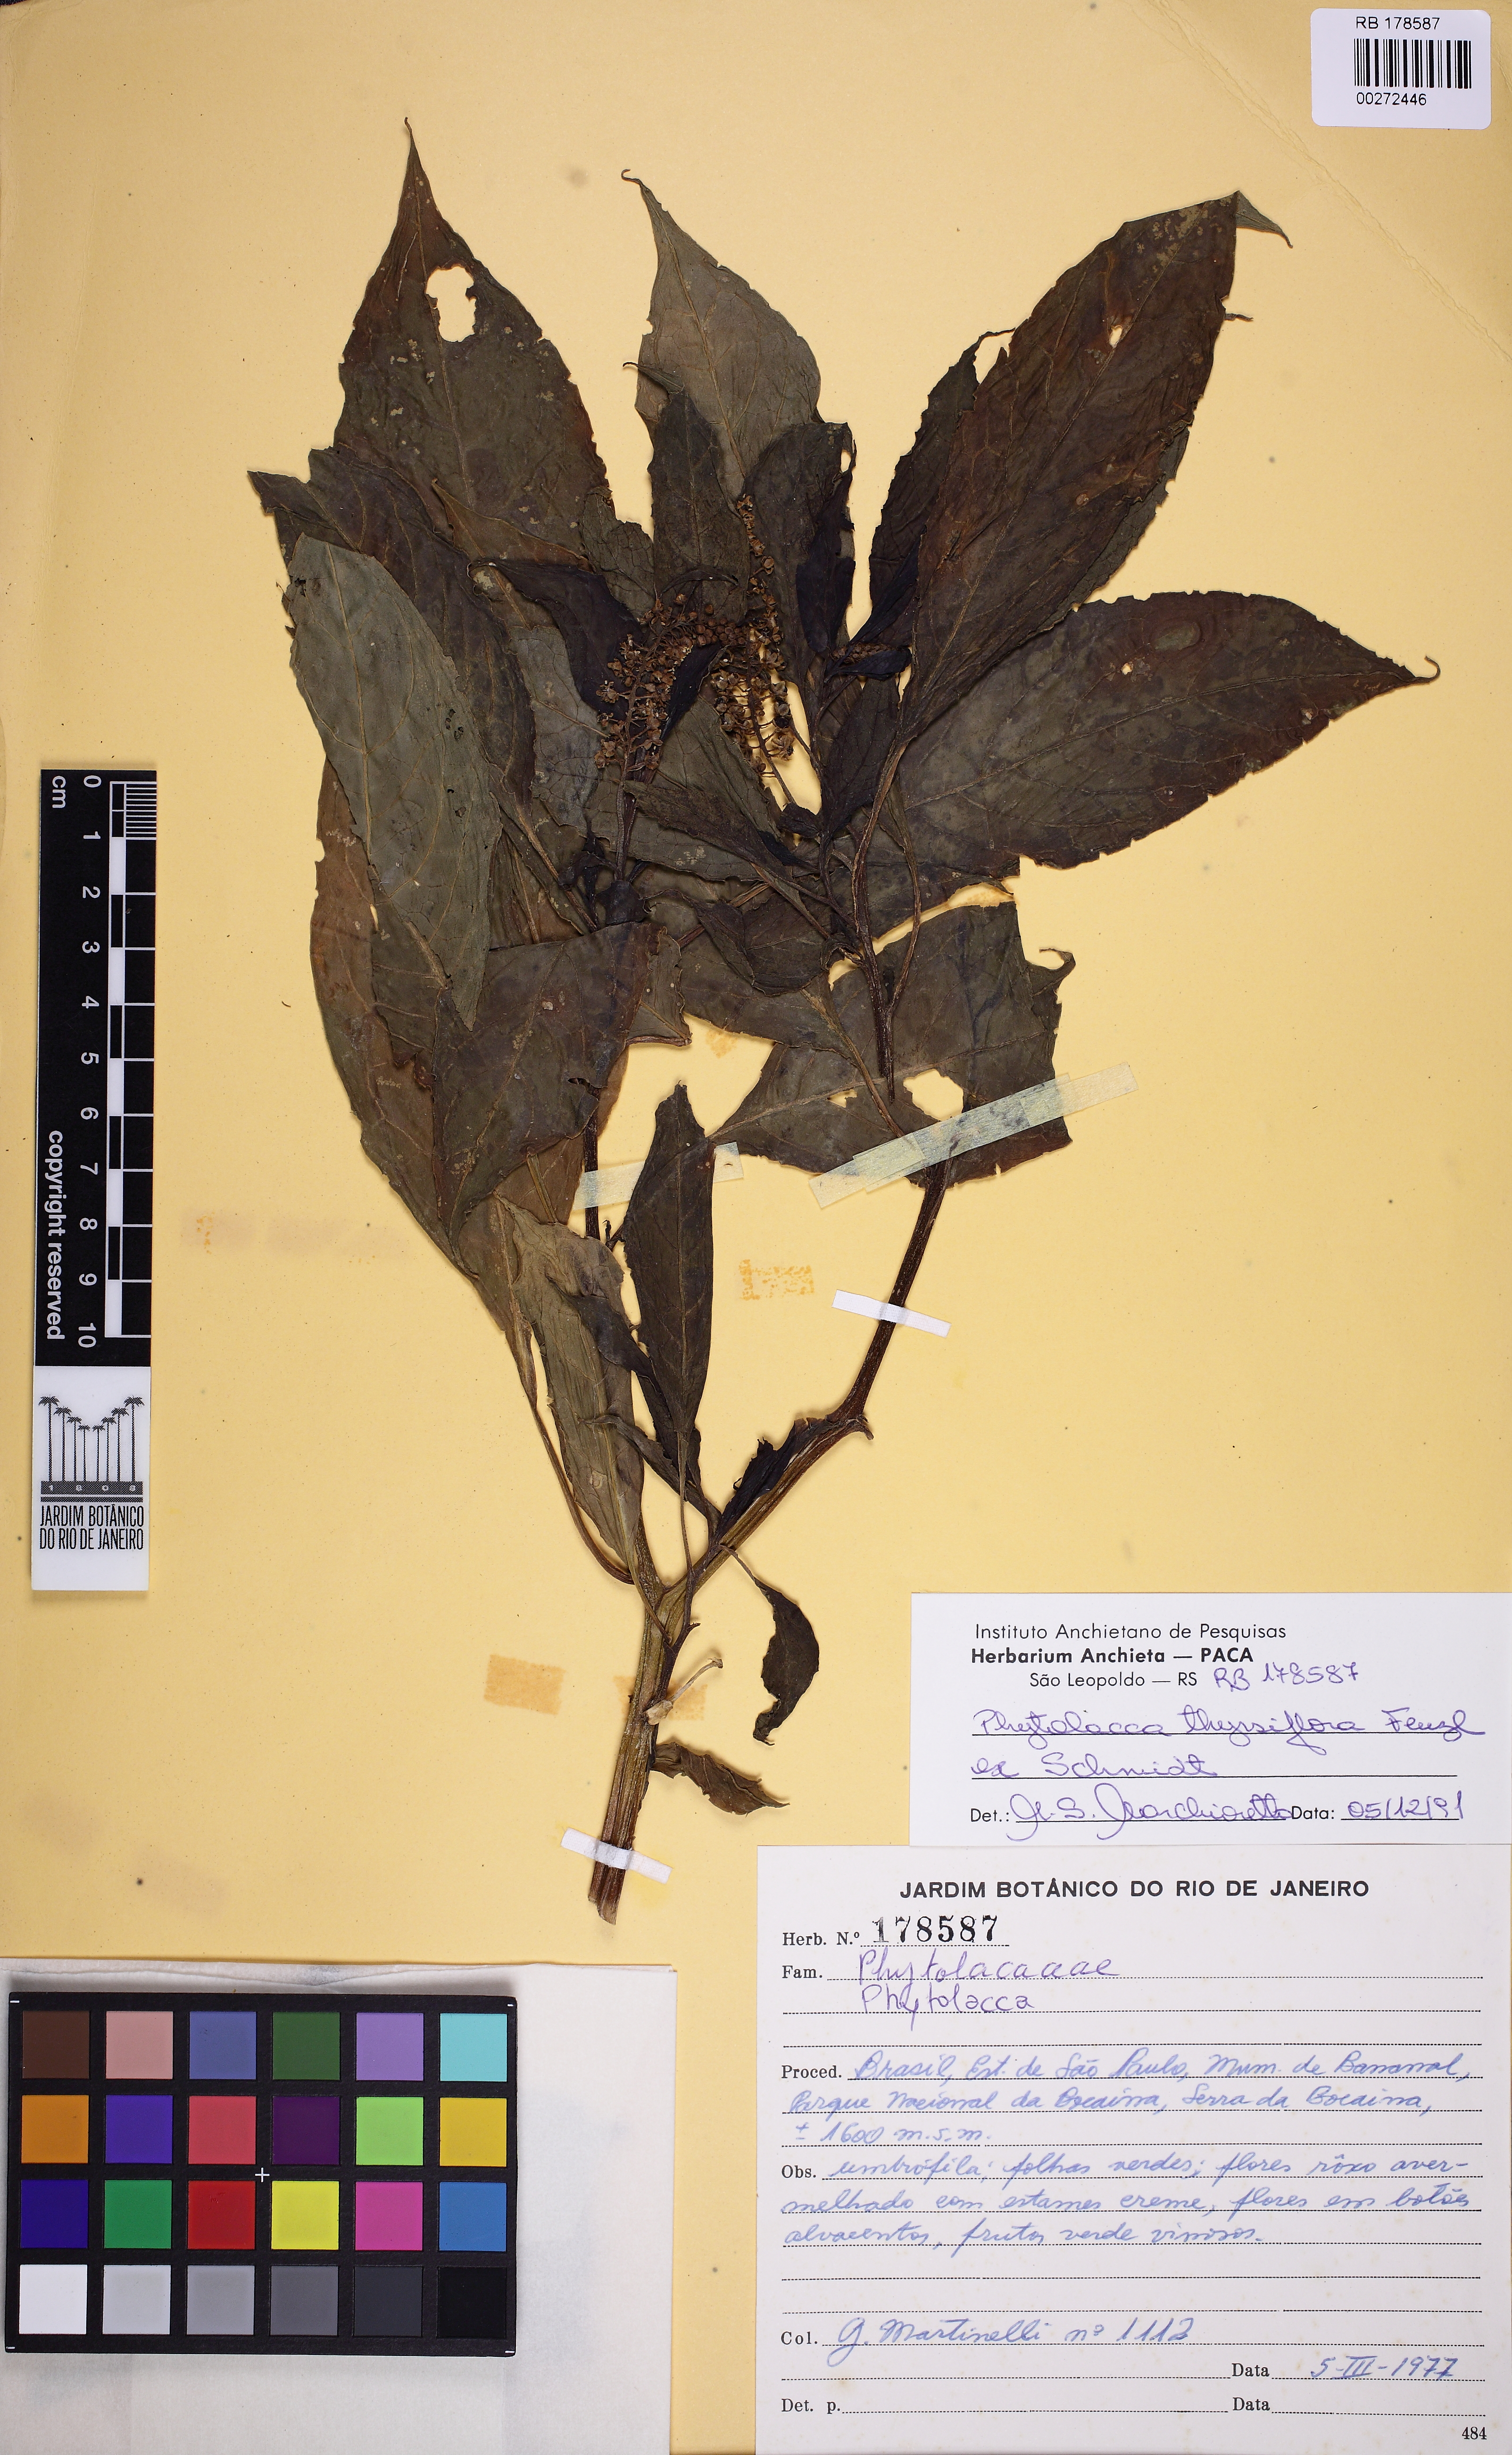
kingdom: Plantae
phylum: Tracheophyta
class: Magnoliopsida
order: Caryophyllales
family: Phytolaccaceae
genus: Phytolacca
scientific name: Phytolacca thyrsiflora
